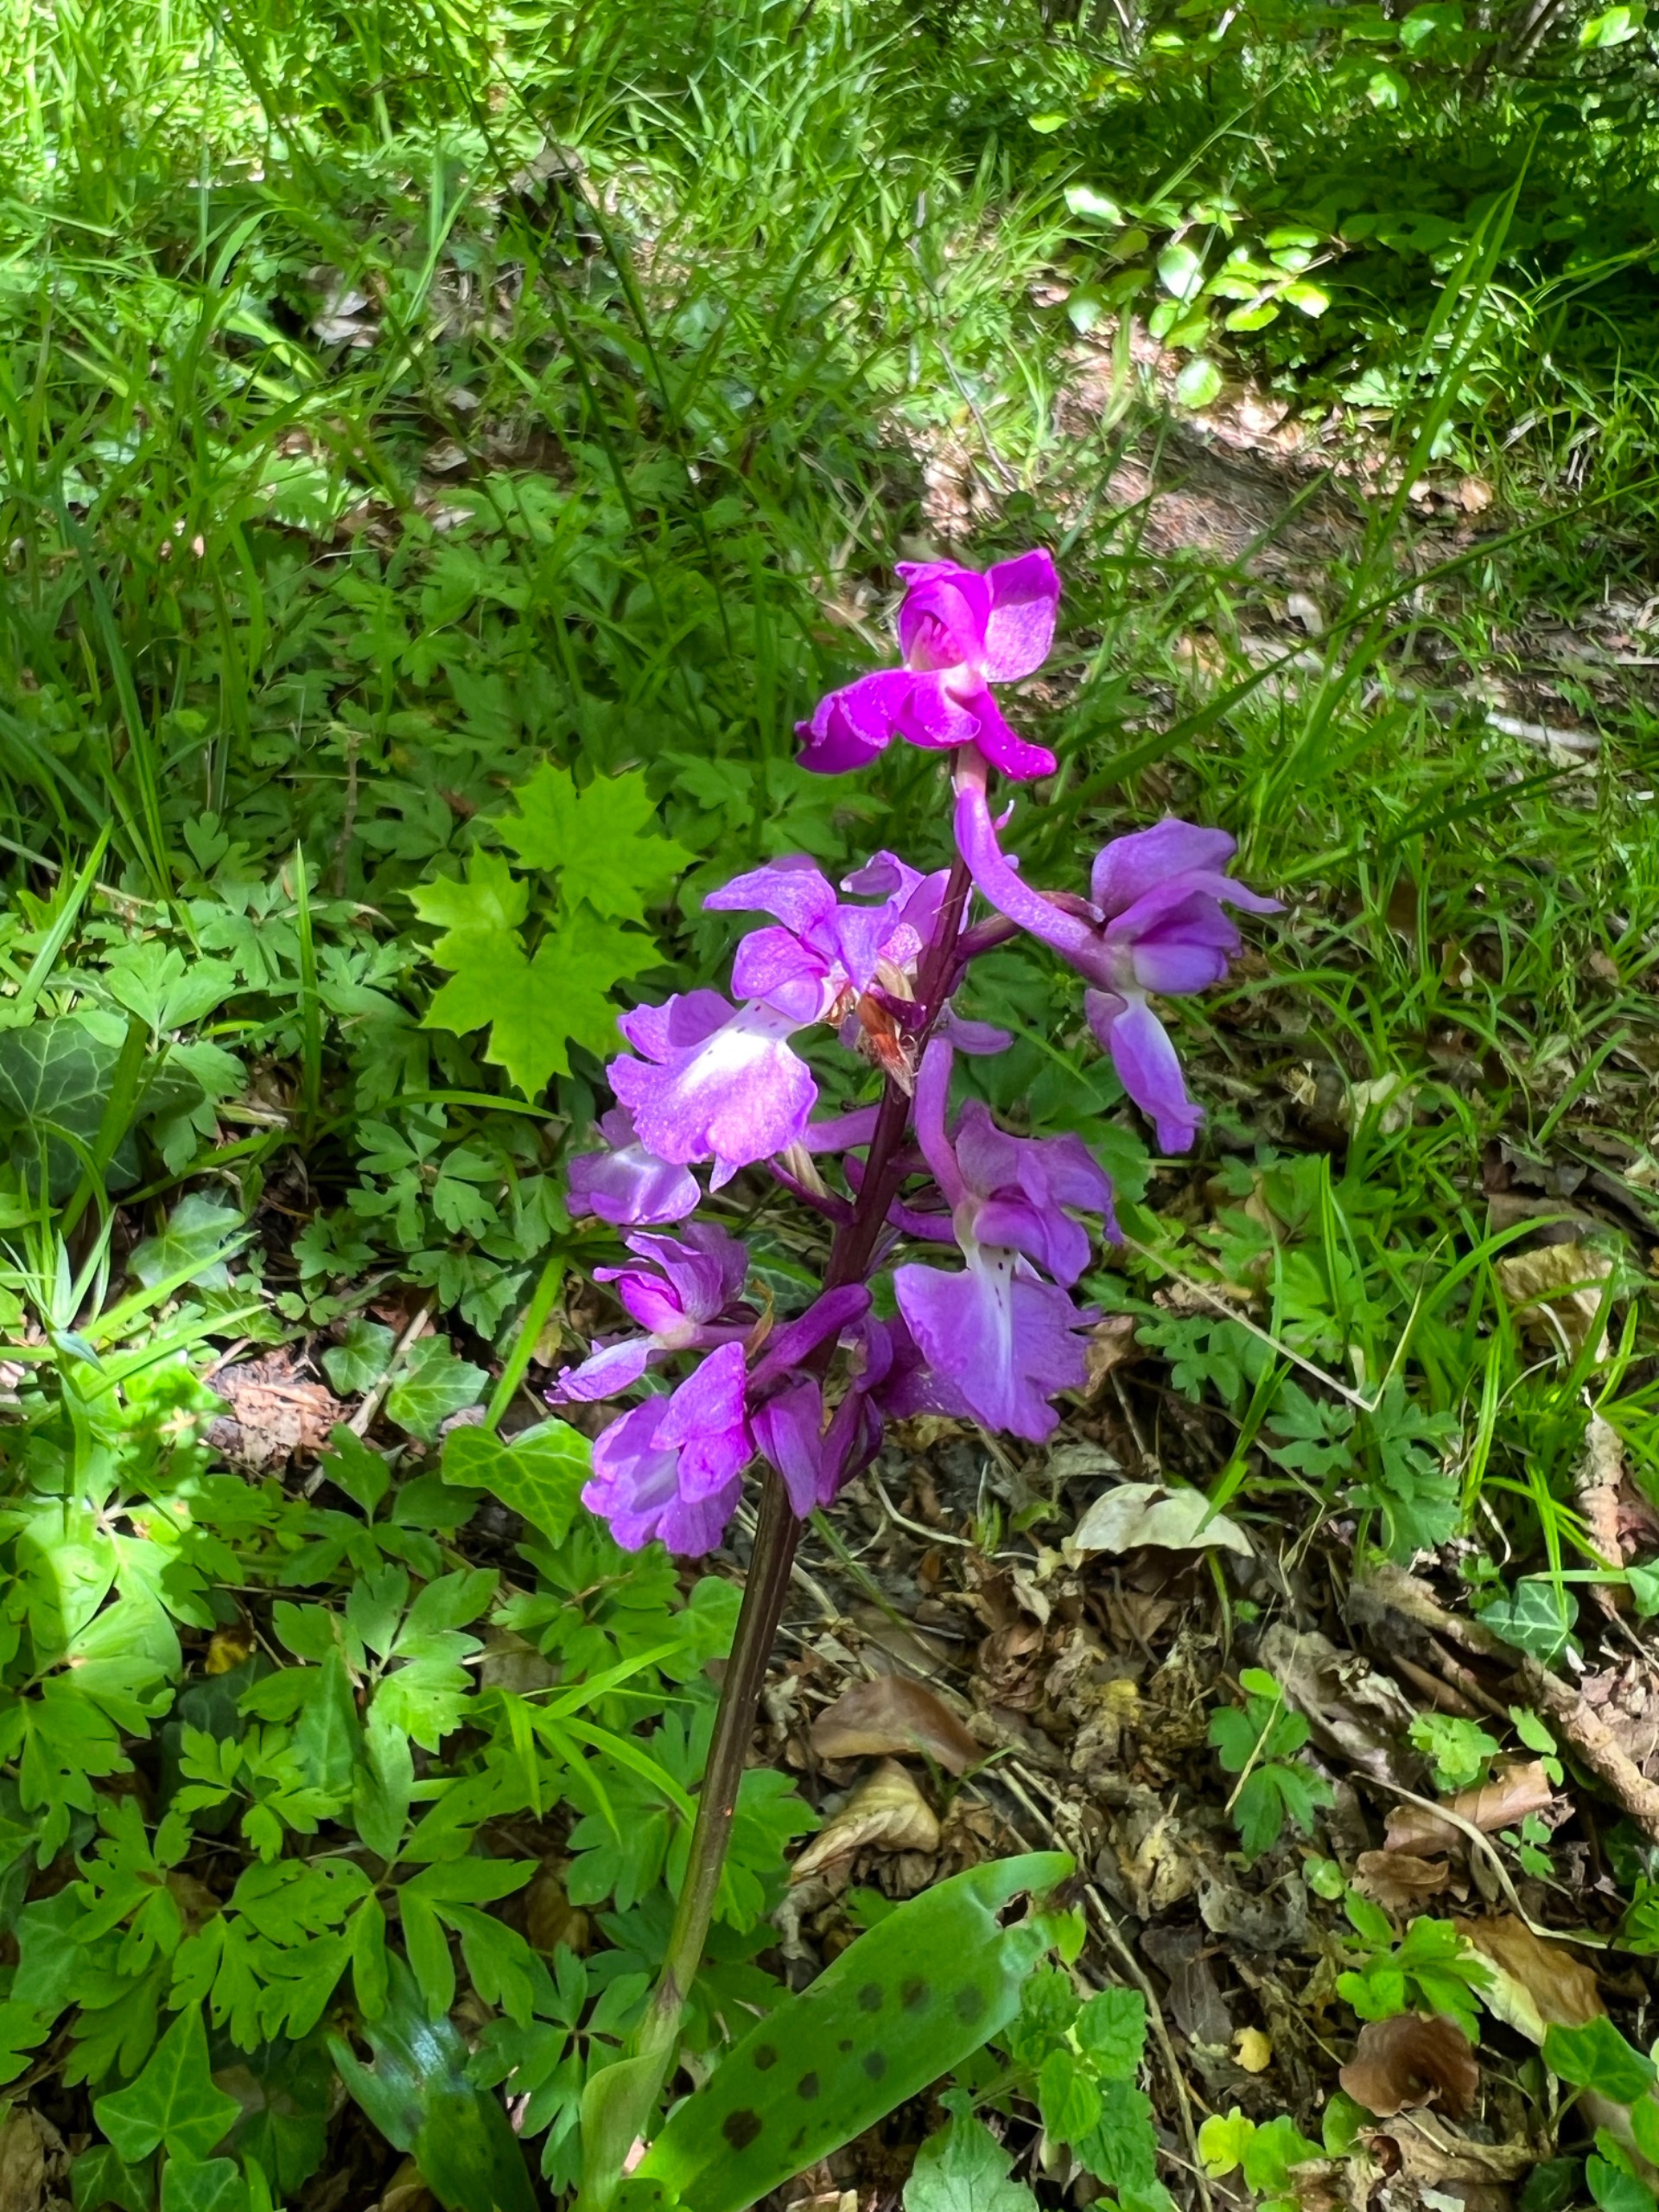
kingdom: Plantae
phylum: Tracheophyta
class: Liliopsida
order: Asparagales
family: Orchidaceae
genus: Orchis
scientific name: Orchis mascula
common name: Tyndakset gøgeurt
